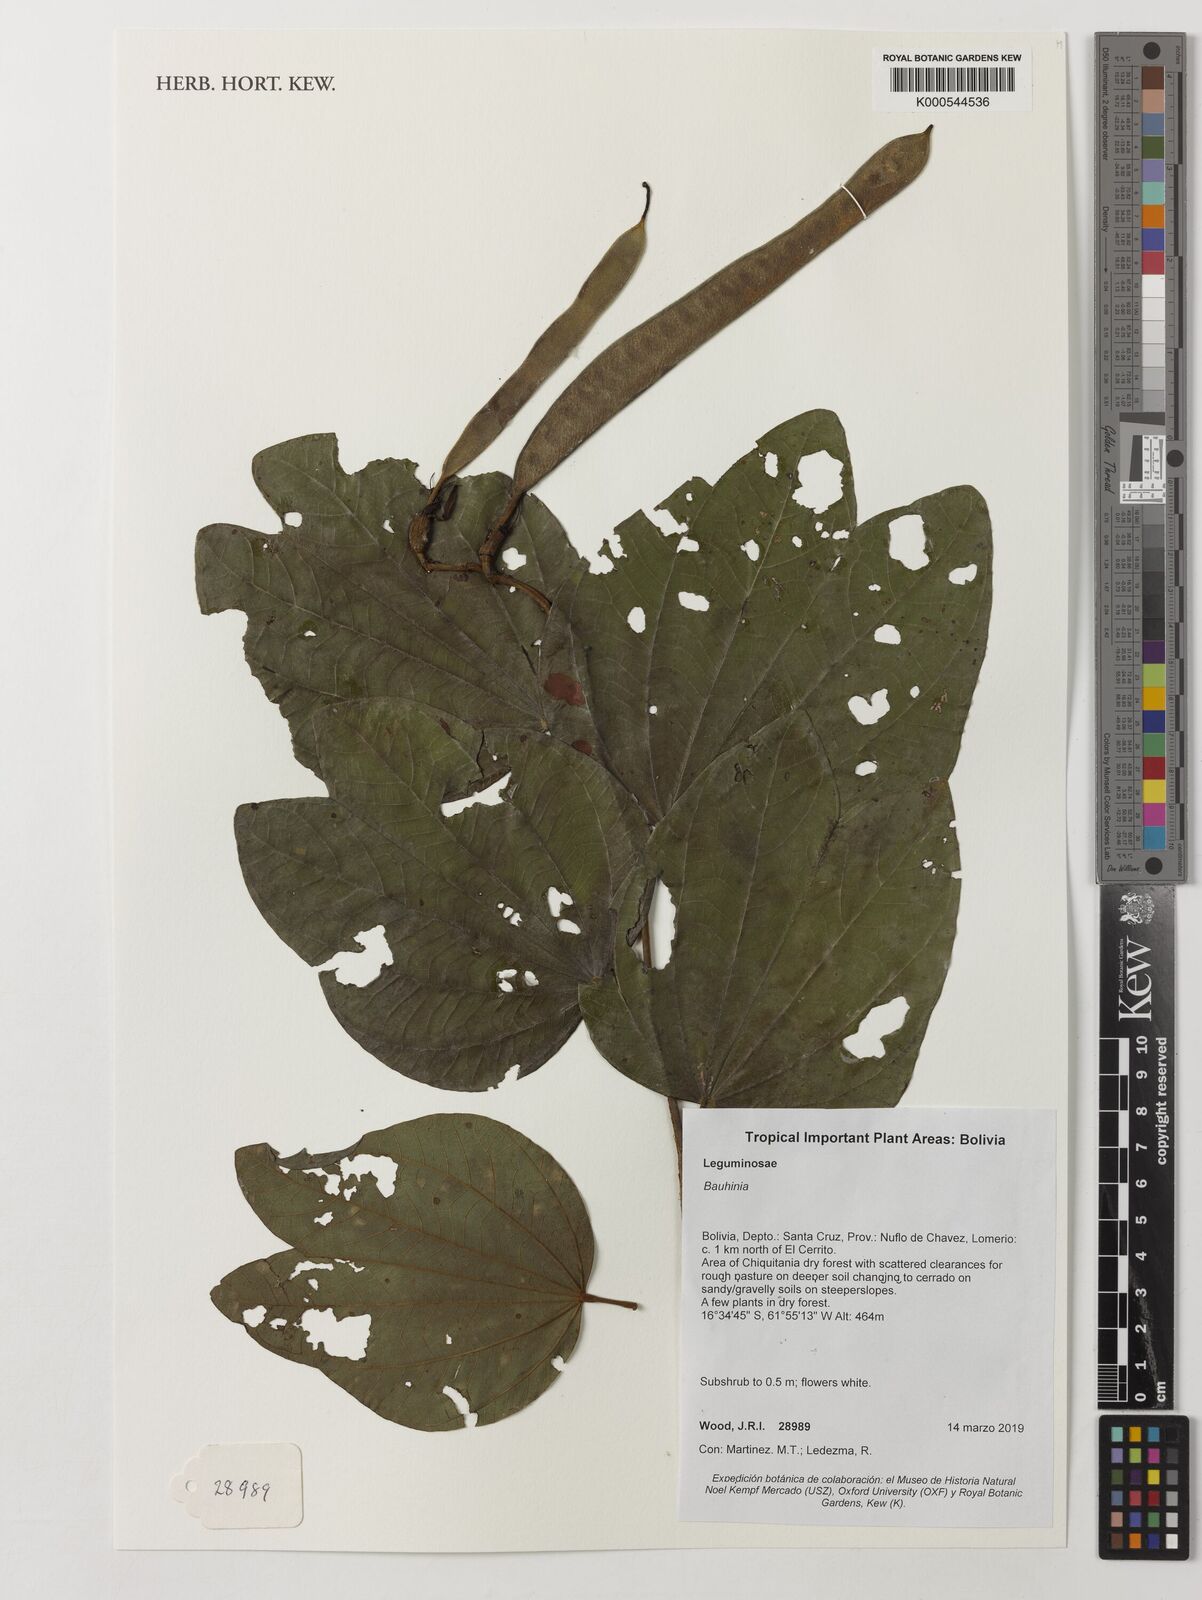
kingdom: Plantae
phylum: Tracheophyta
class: Magnoliopsida
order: Fabales
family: Fabaceae
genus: Bauhinia
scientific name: Bauhinia
